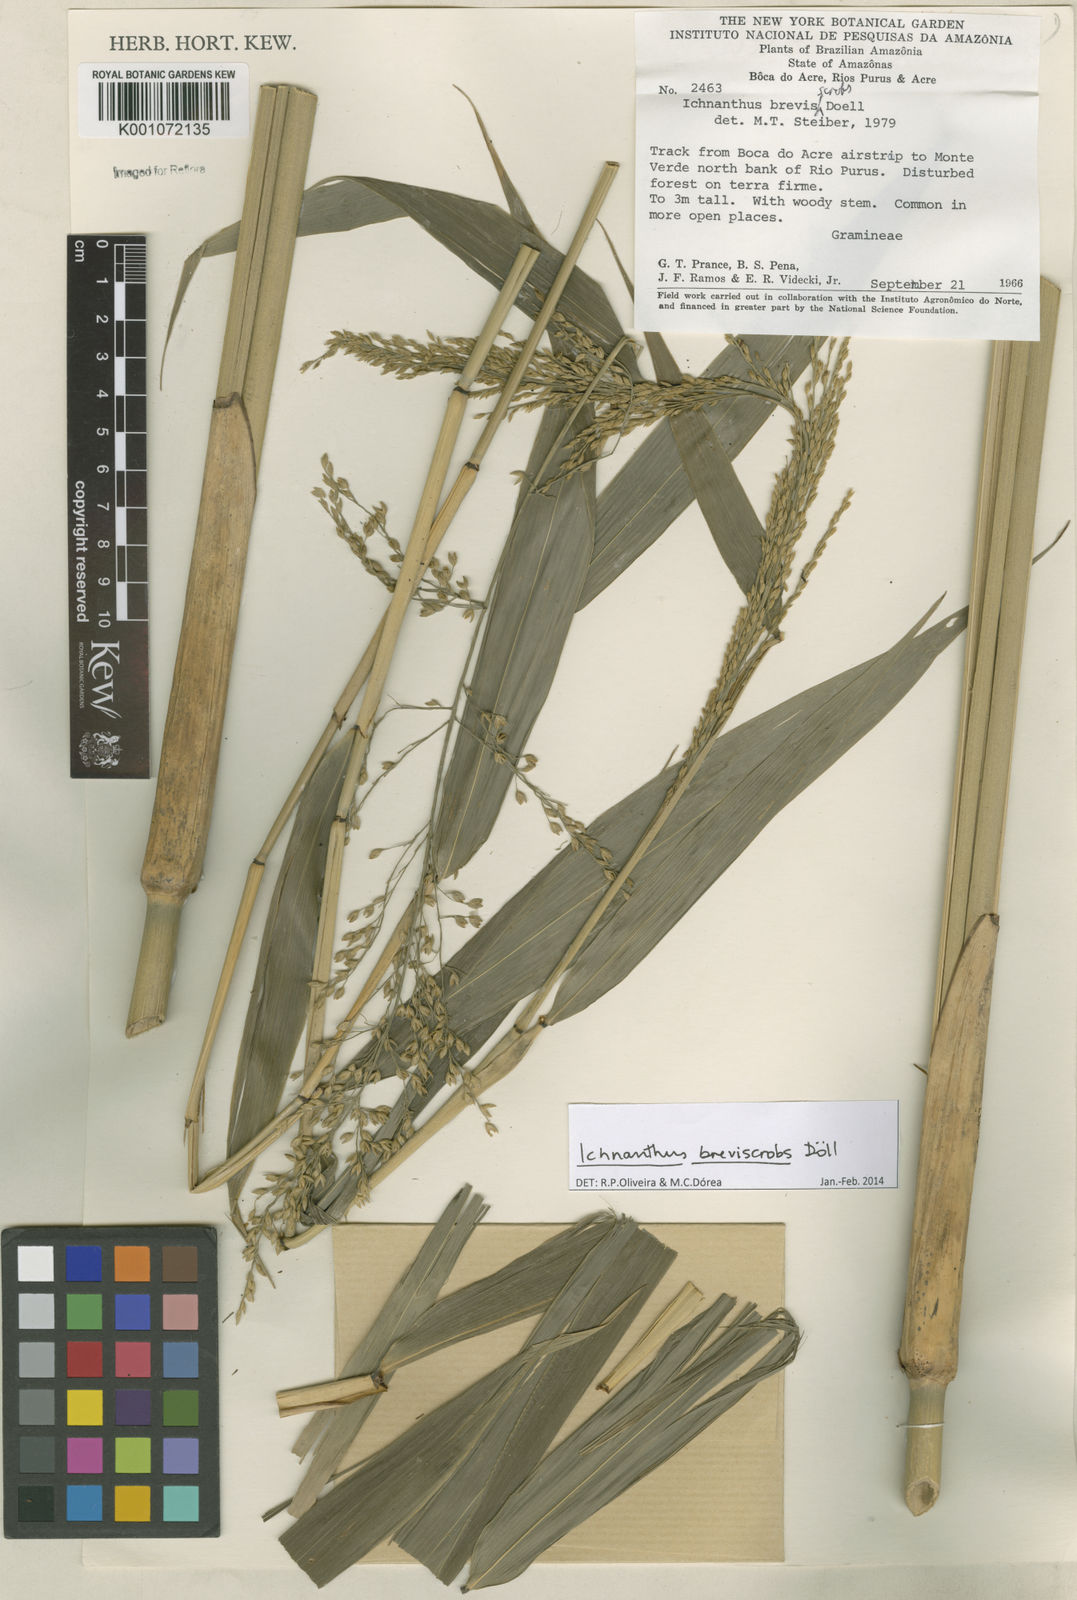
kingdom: Plantae
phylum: Tracheophyta
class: Liliopsida
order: Poales
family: Poaceae
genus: Ichnanthus
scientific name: Ichnanthus
